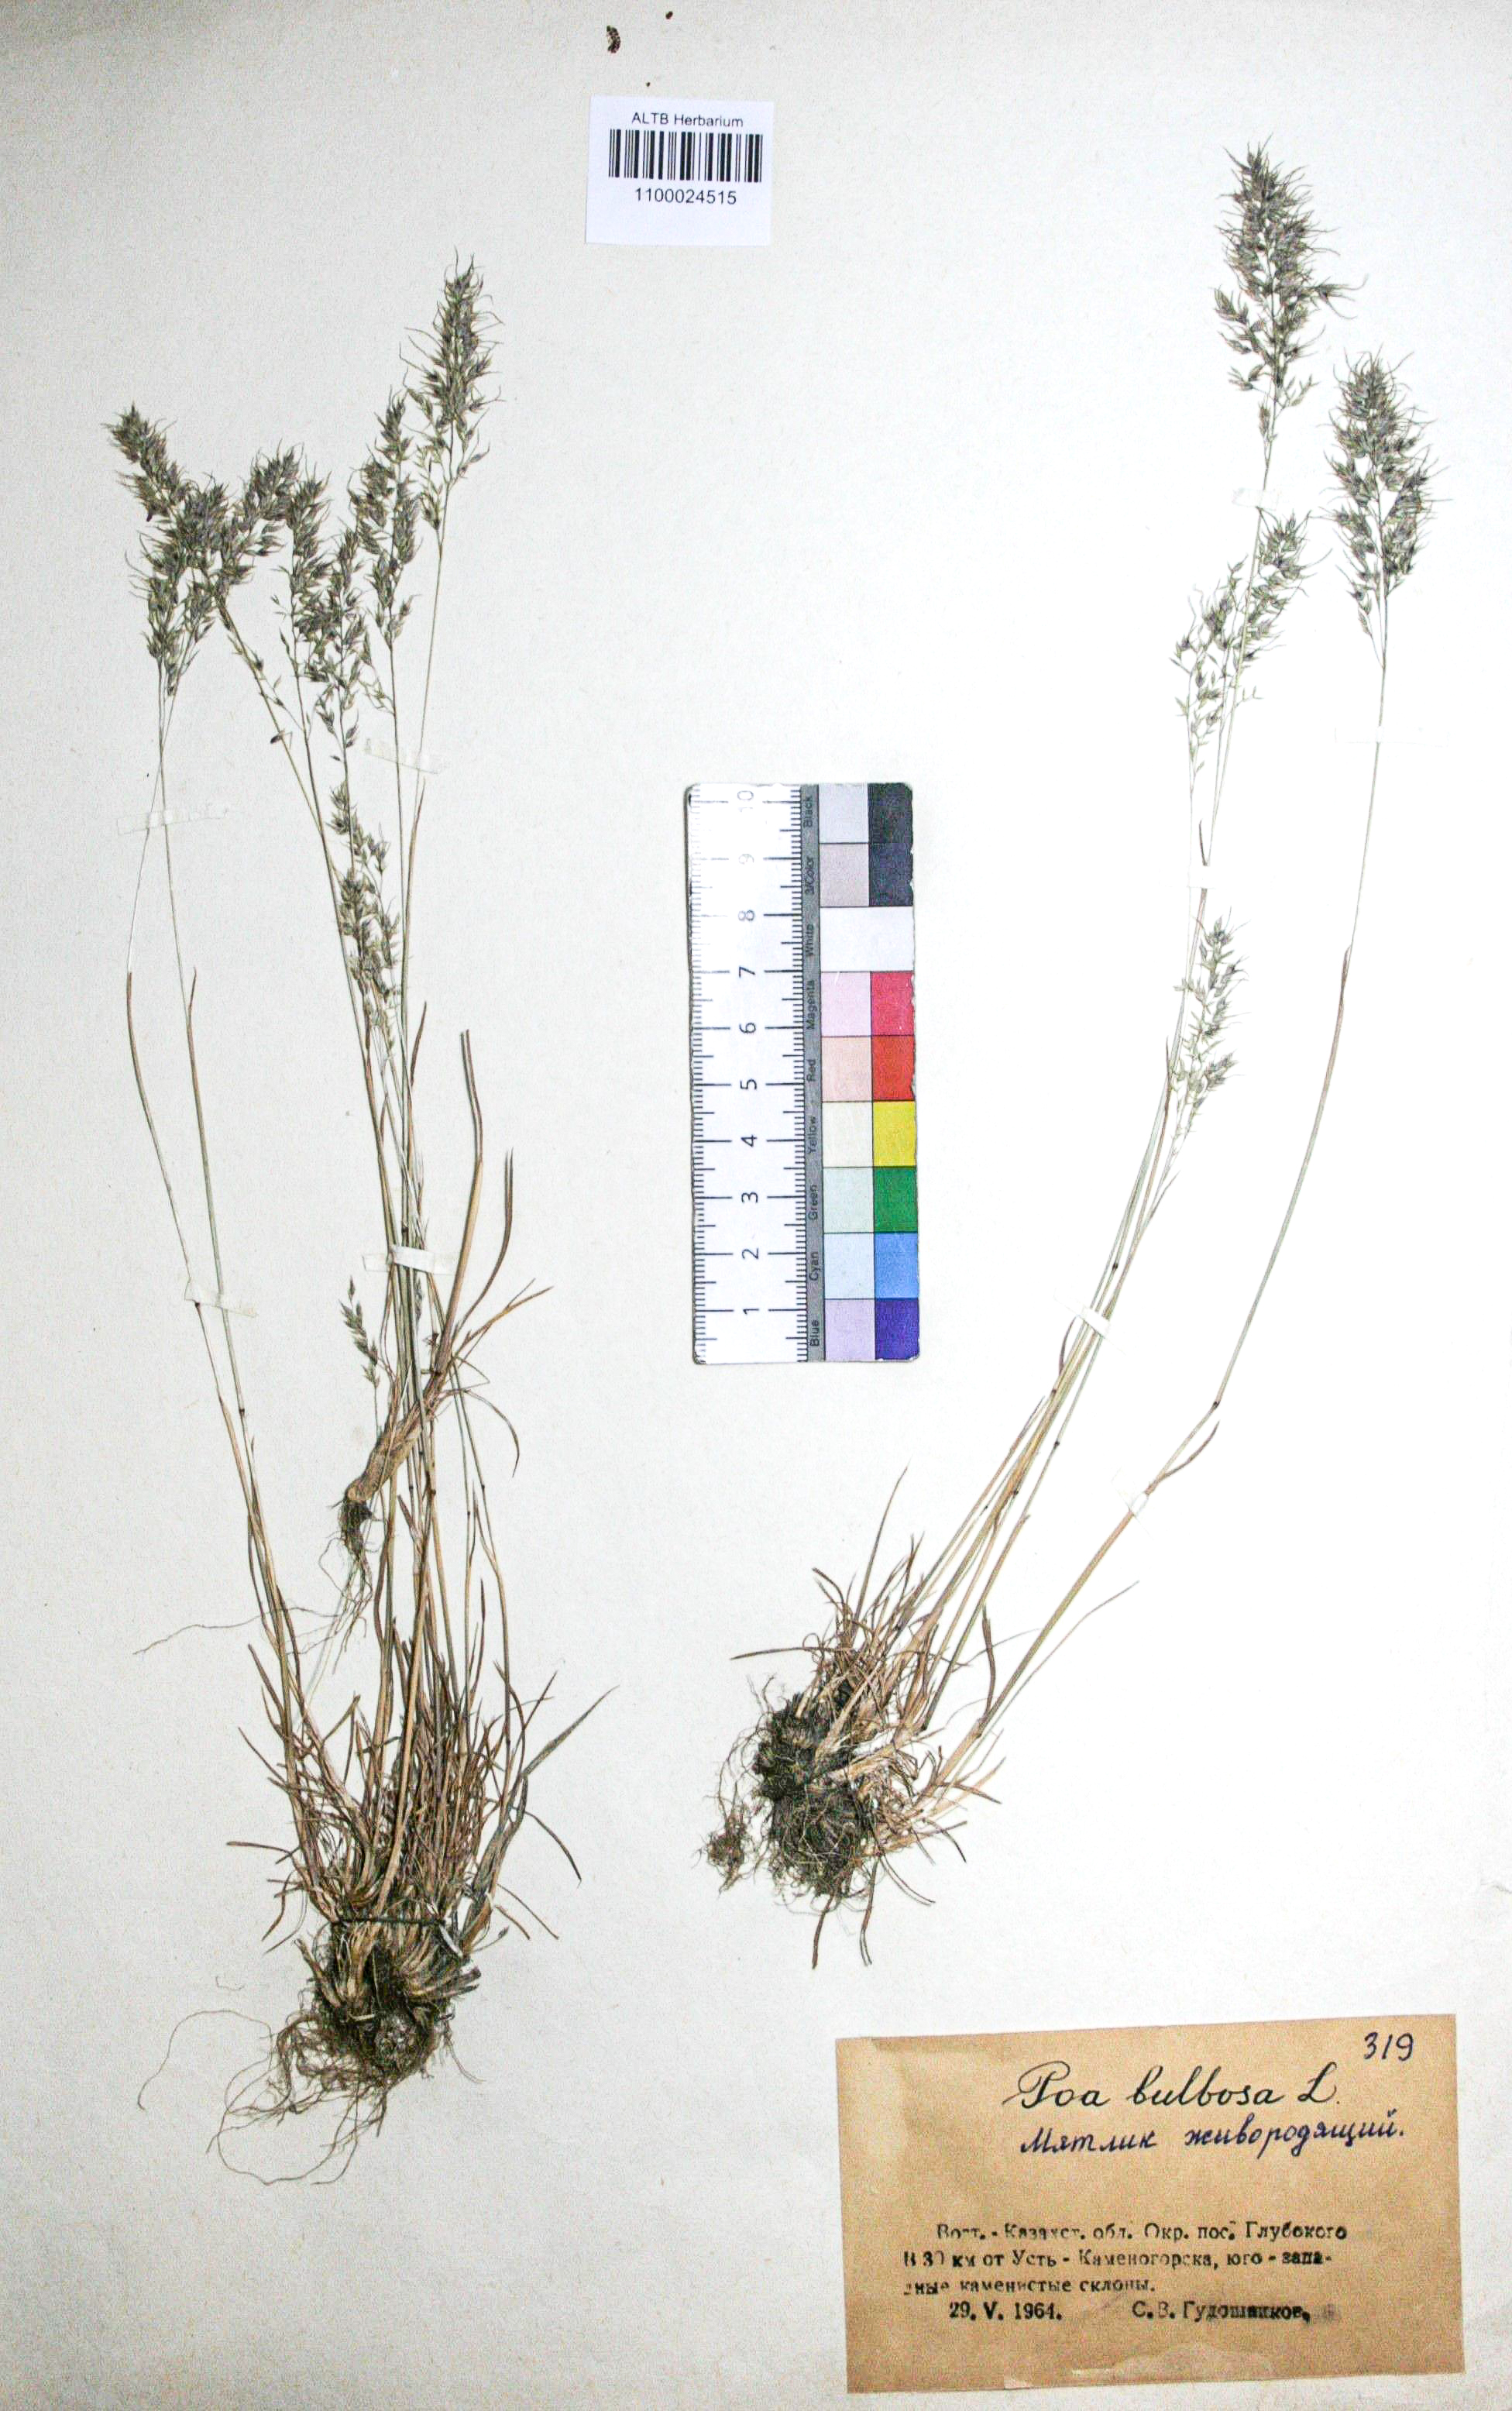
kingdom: Plantae
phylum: Tracheophyta
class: Liliopsida
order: Poales
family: Poaceae
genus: Poa
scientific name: Poa bulbosa
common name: Bulbous bluegrass
